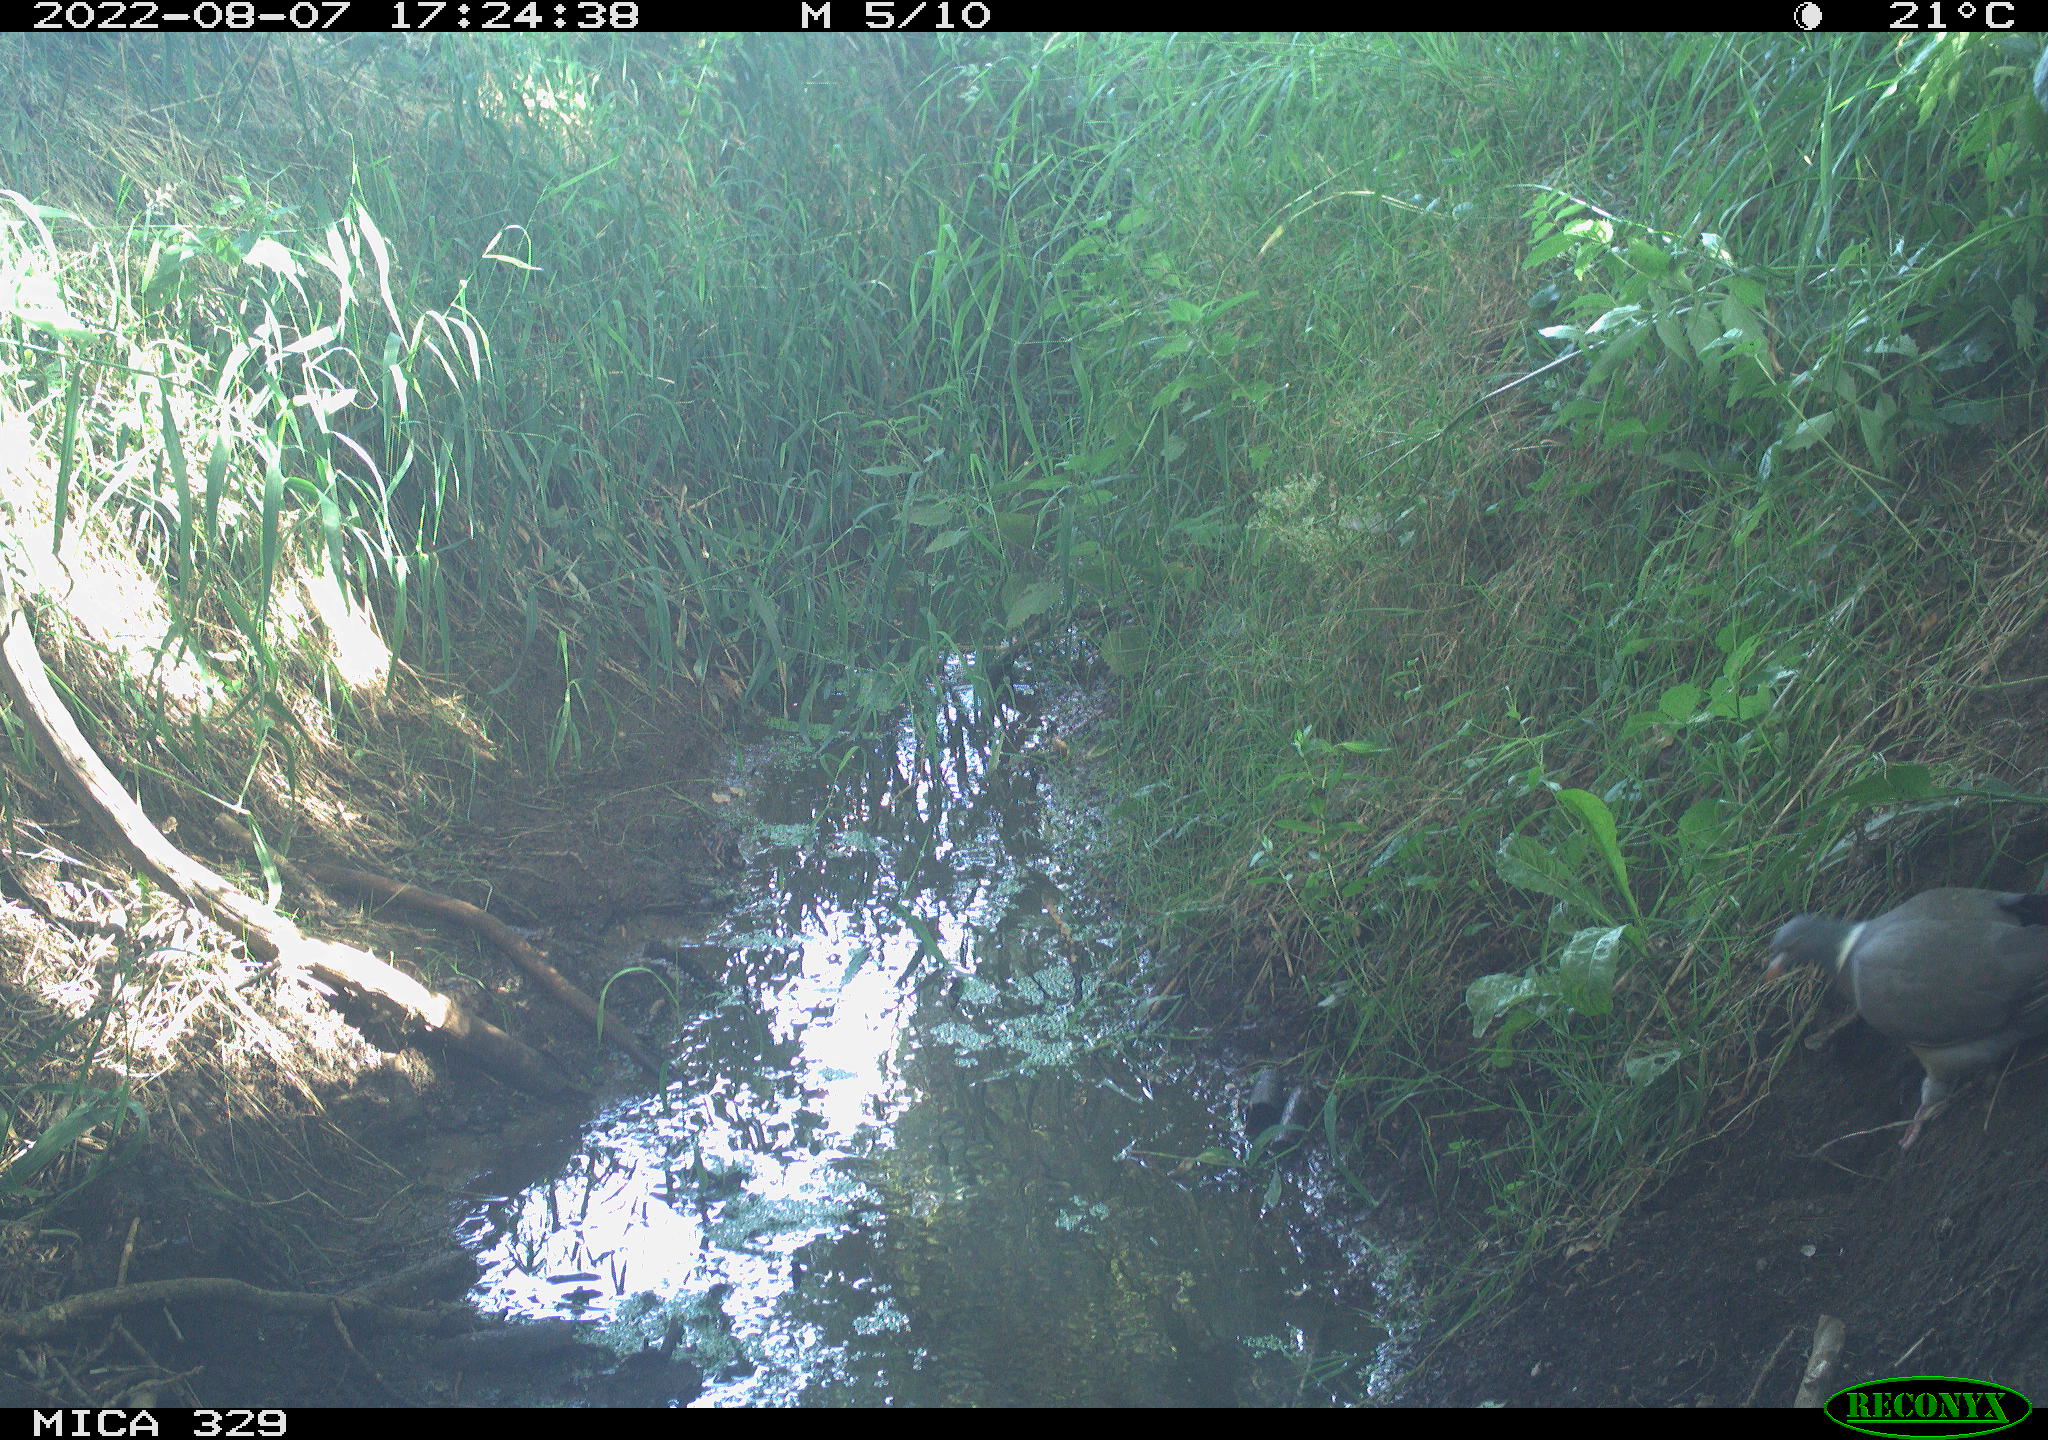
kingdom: Animalia
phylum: Chordata
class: Aves
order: Columbiformes
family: Columbidae
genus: Columba
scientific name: Columba palumbus
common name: Common wood pigeon
